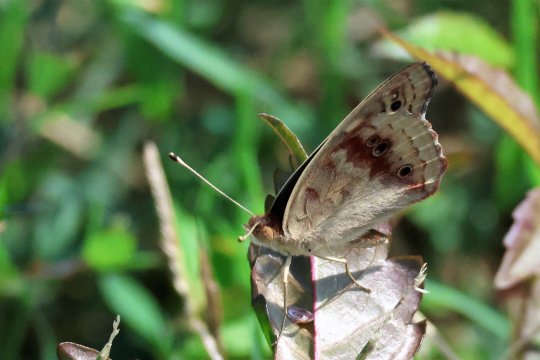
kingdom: Animalia
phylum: Arthropoda
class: Insecta
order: Lepidoptera
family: Nymphalidae
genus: Junonia
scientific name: Junonia coenia
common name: Common Buckeye
